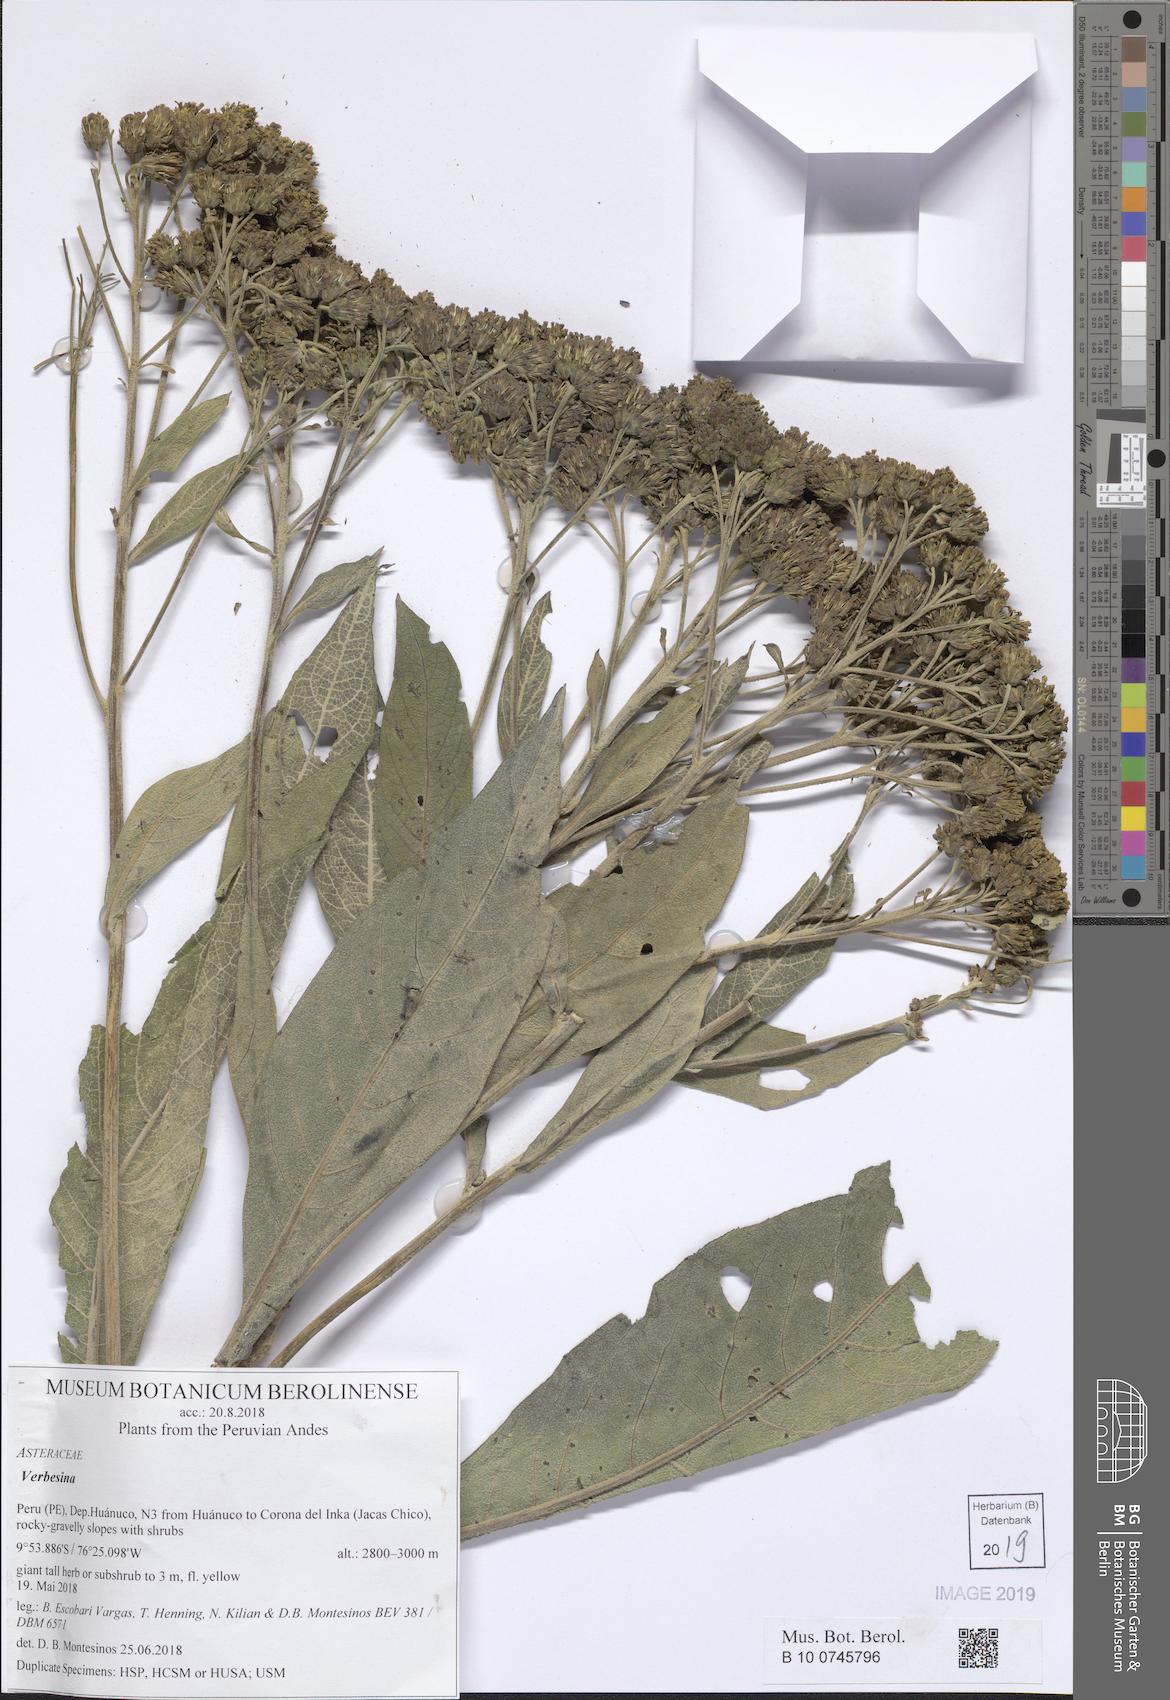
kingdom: Plantae
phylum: Tracheophyta
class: Magnoliopsida
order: Asterales
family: Asteraceae
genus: Verbesina
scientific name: Verbesina
